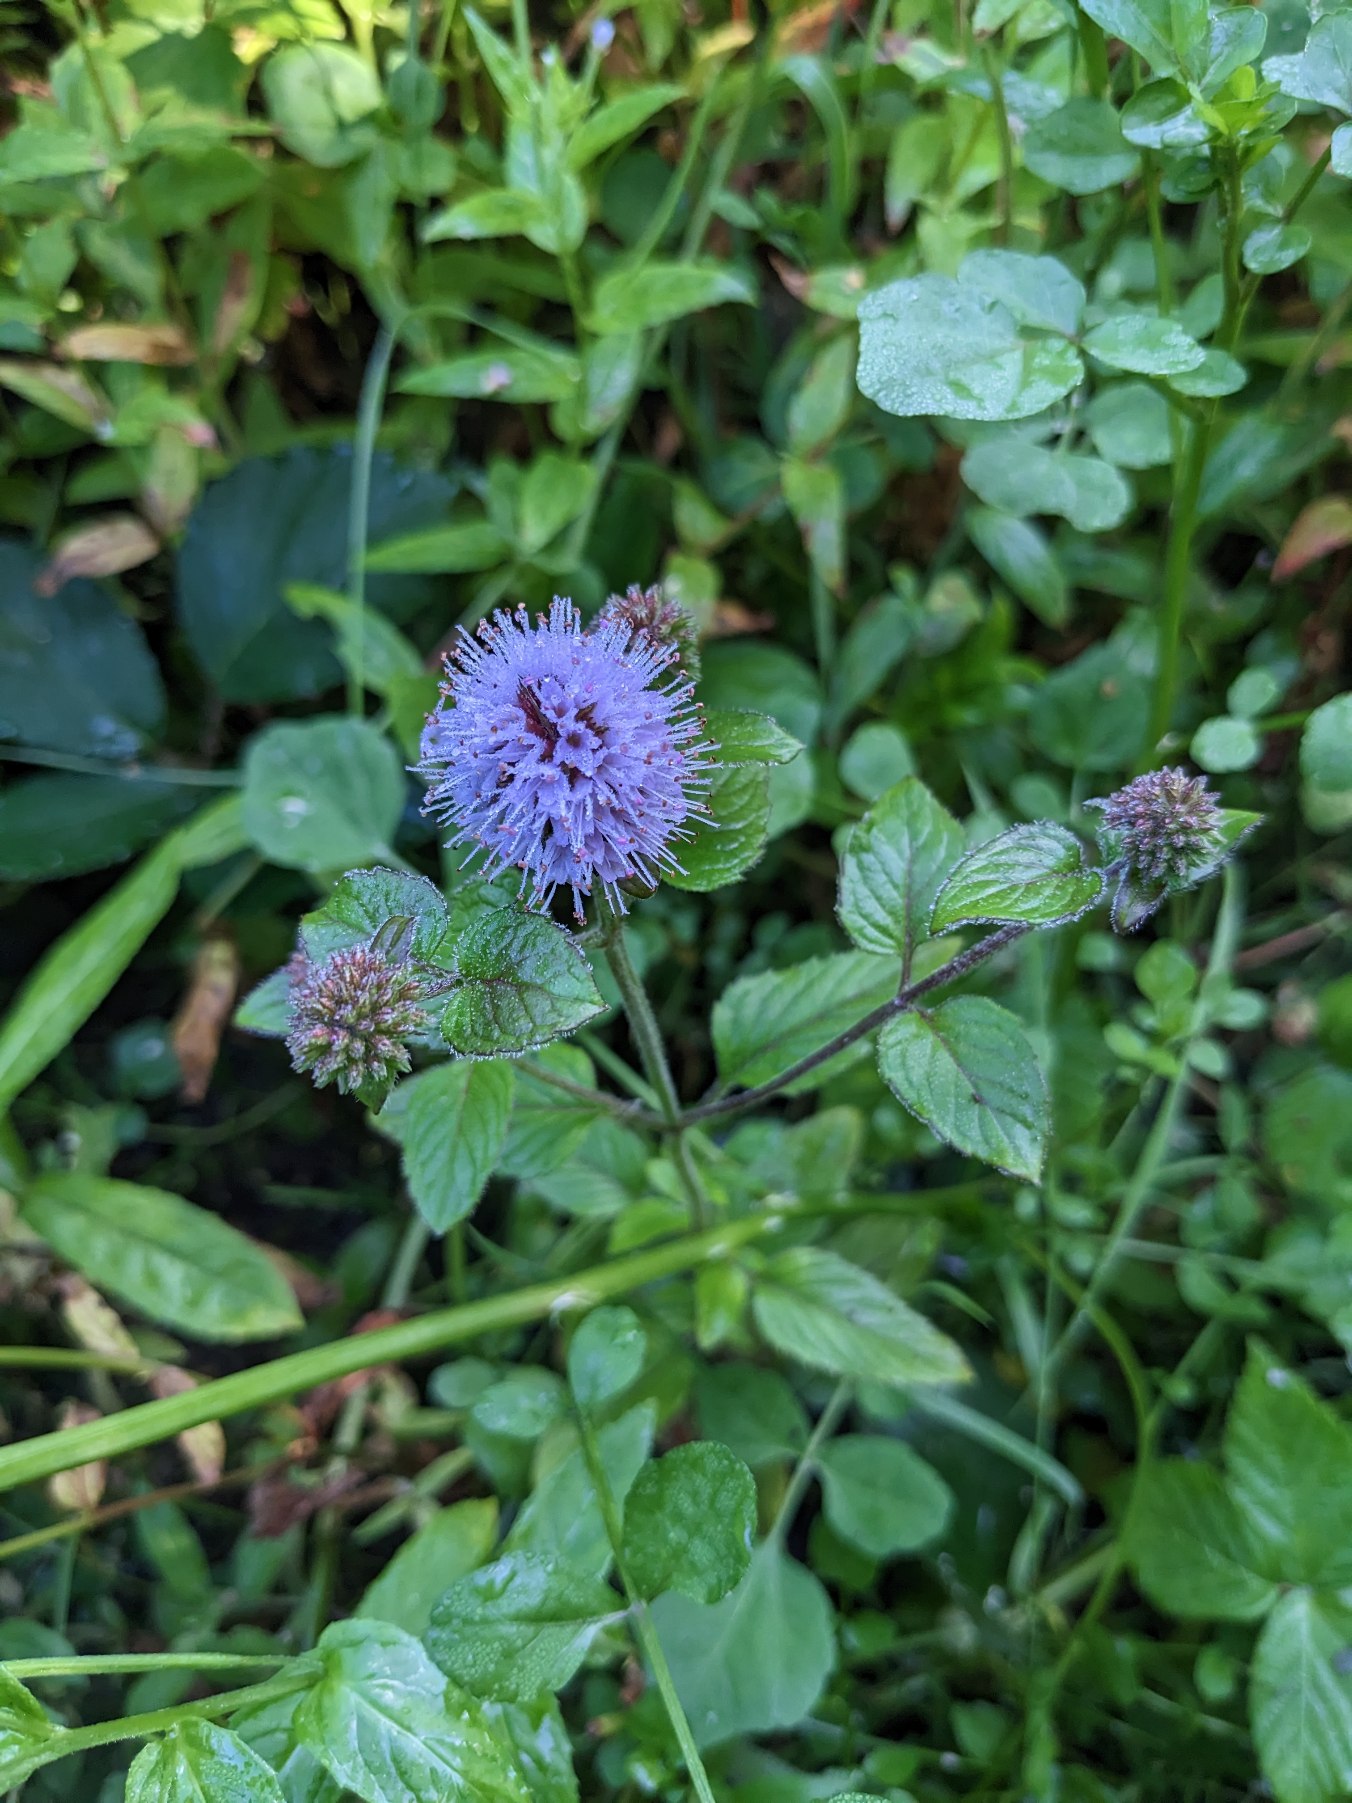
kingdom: Plantae
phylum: Tracheophyta
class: Magnoliopsida
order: Lamiales
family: Lamiaceae
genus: Mentha
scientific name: Mentha aquatica
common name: Vand-mynte
